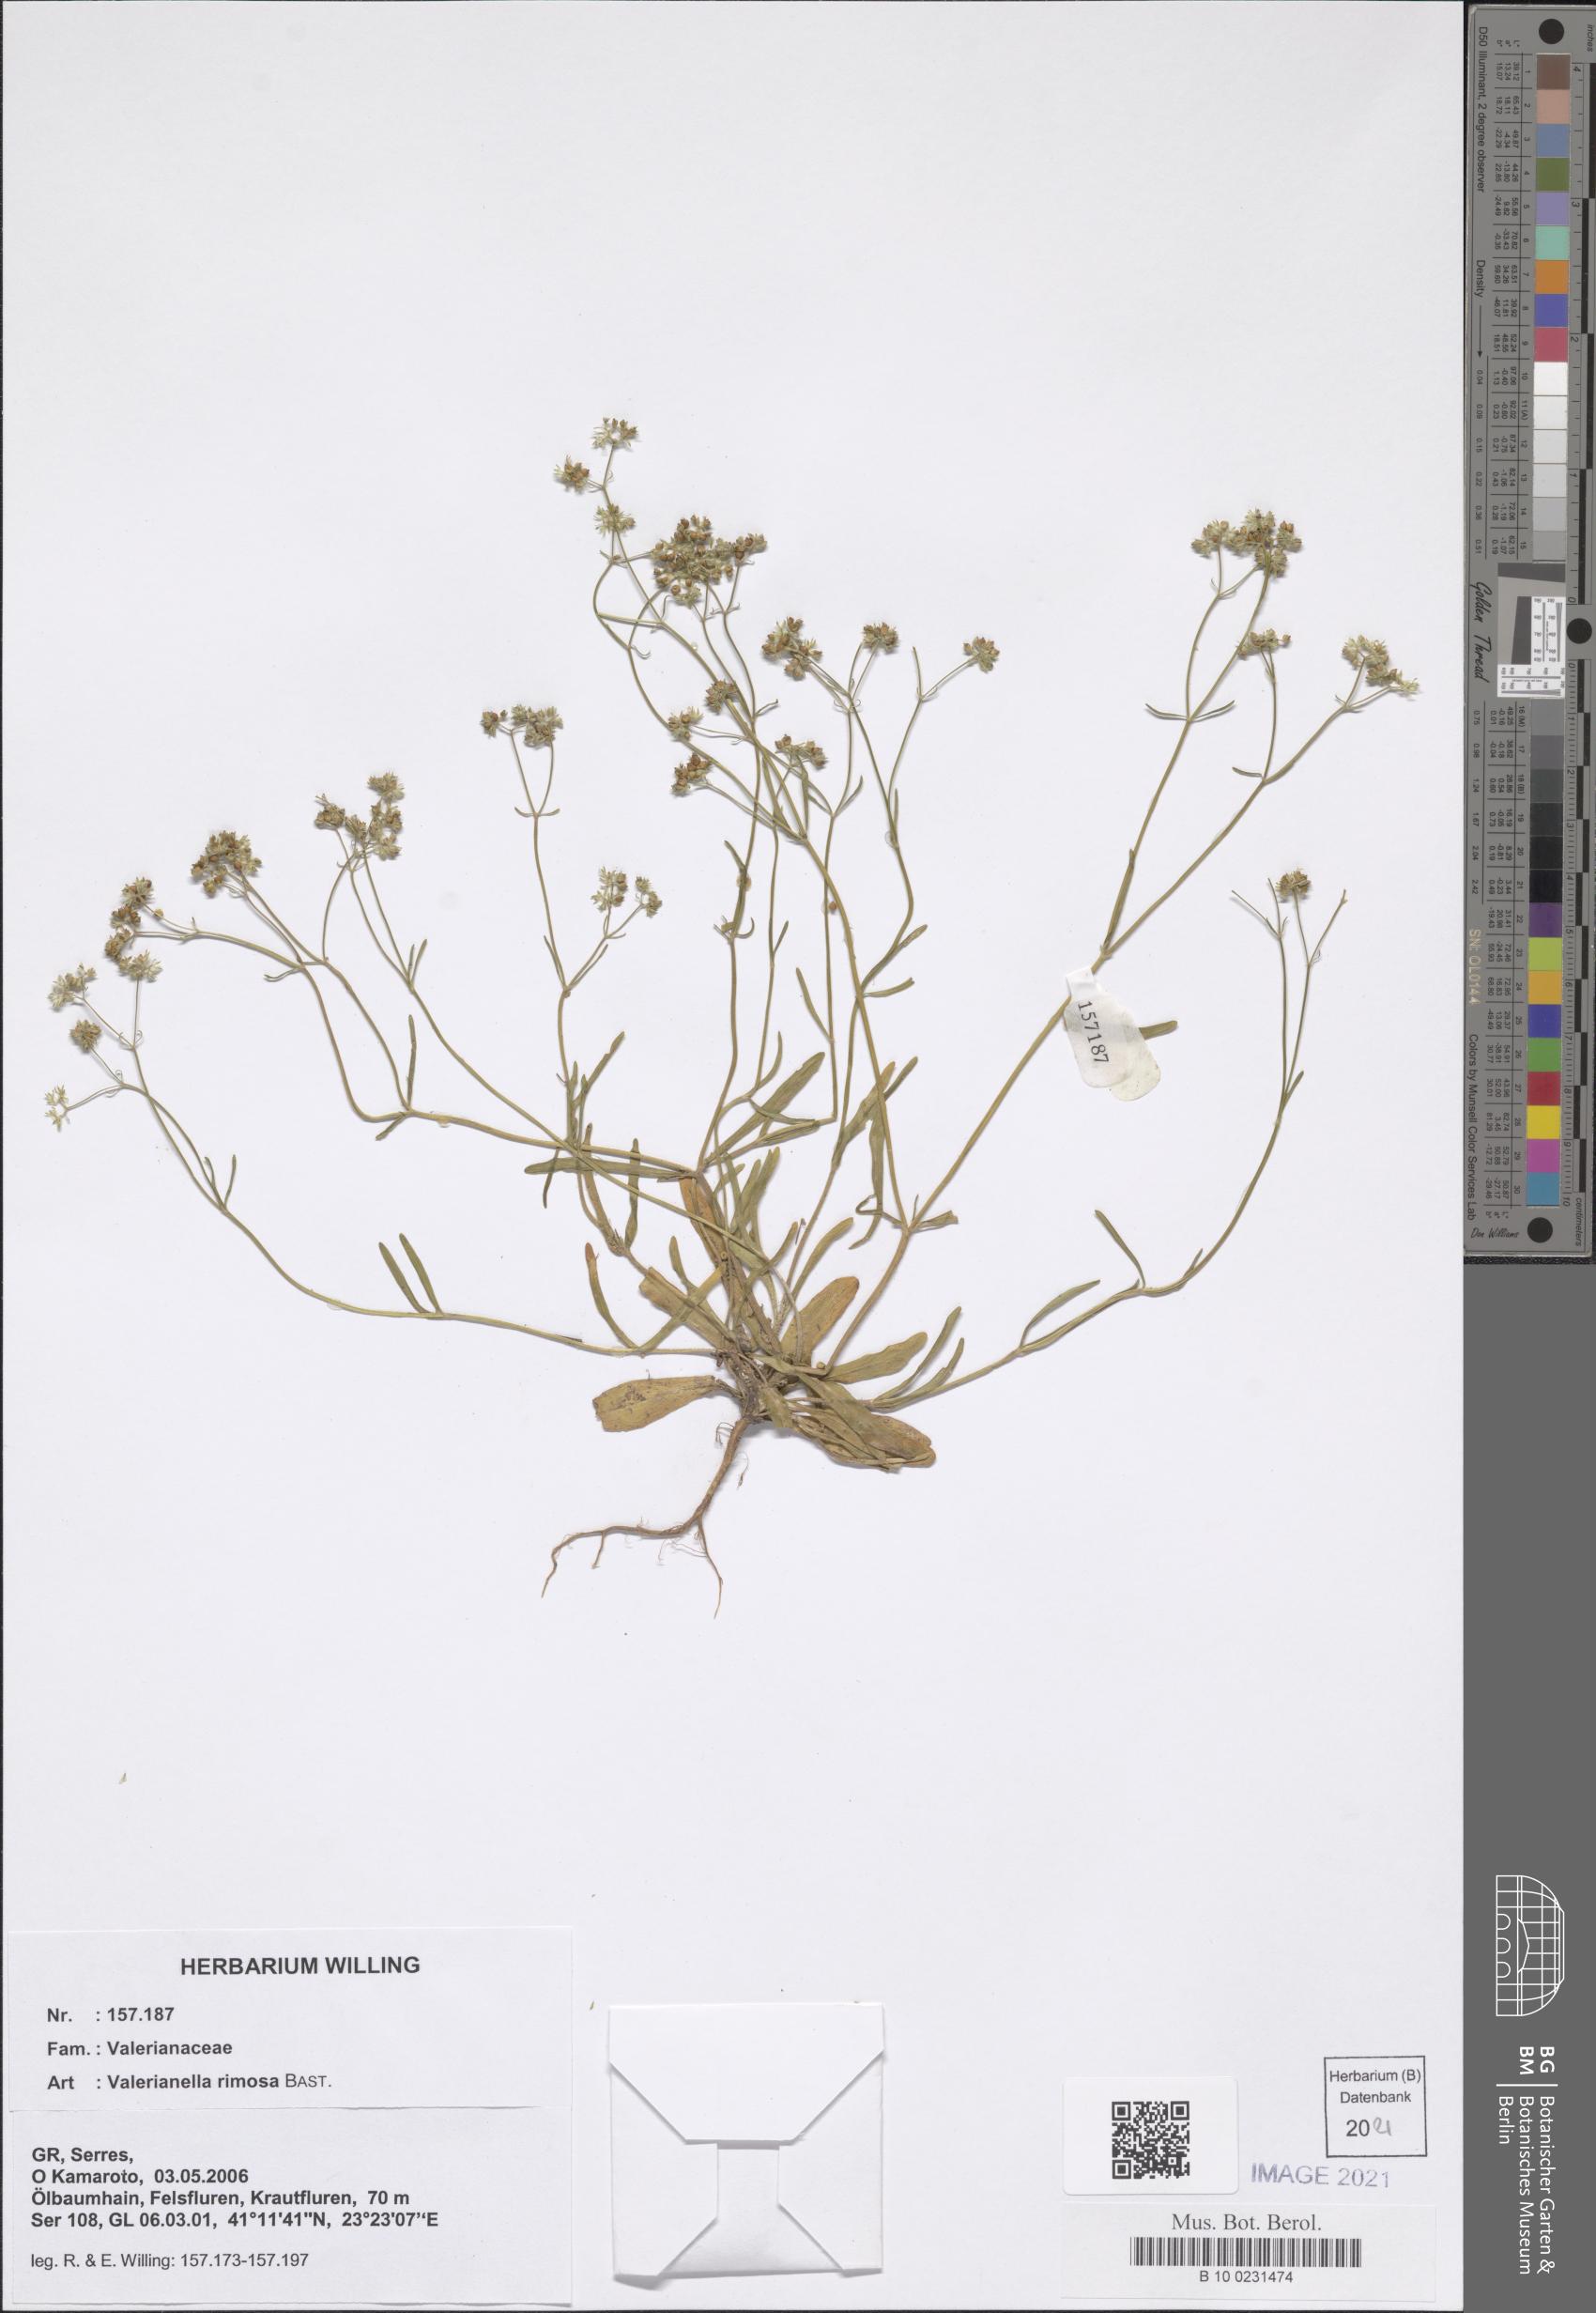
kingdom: Plantae
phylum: Tracheophyta
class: Magnoliopsida
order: Dipsacales
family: Caprifoliaceae
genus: Valerianella
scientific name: Valerianella rimosa
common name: Broad-fruited cornsalad
